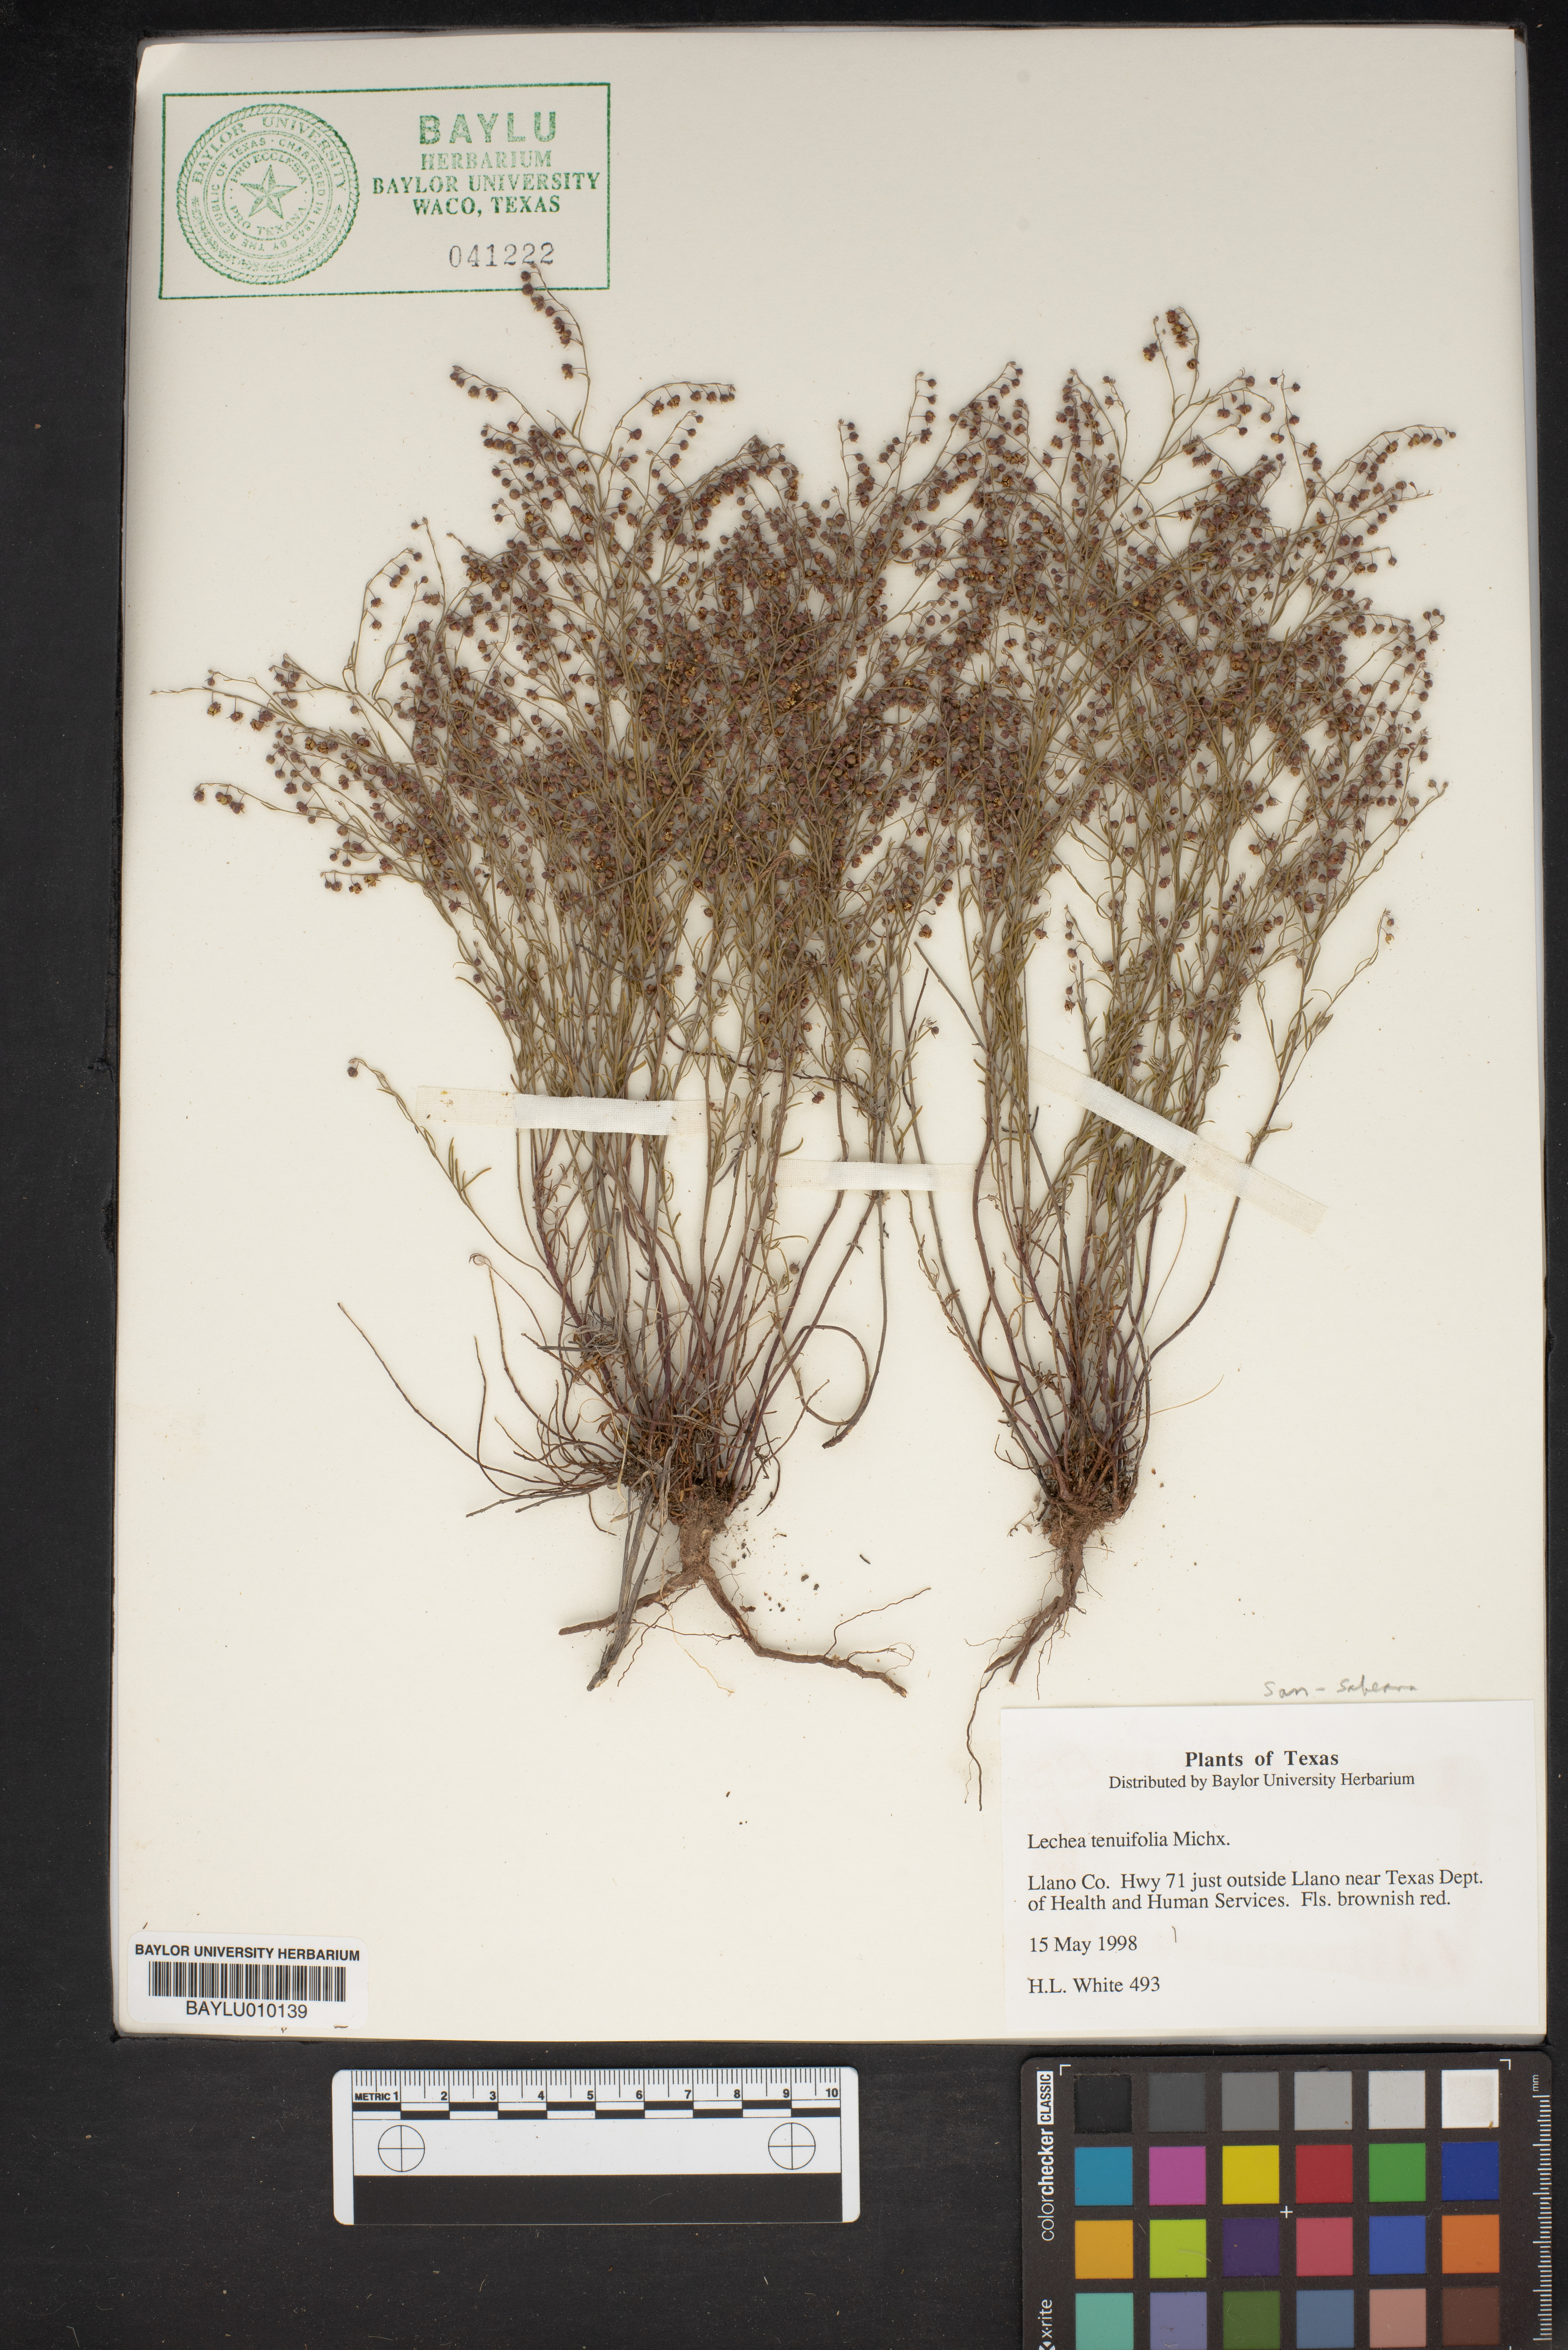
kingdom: Plantae
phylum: Tracheophyta
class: Magnoliopsida
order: Malvales
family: Cistaceae
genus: Lechea
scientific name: Lechea tenuifolia
